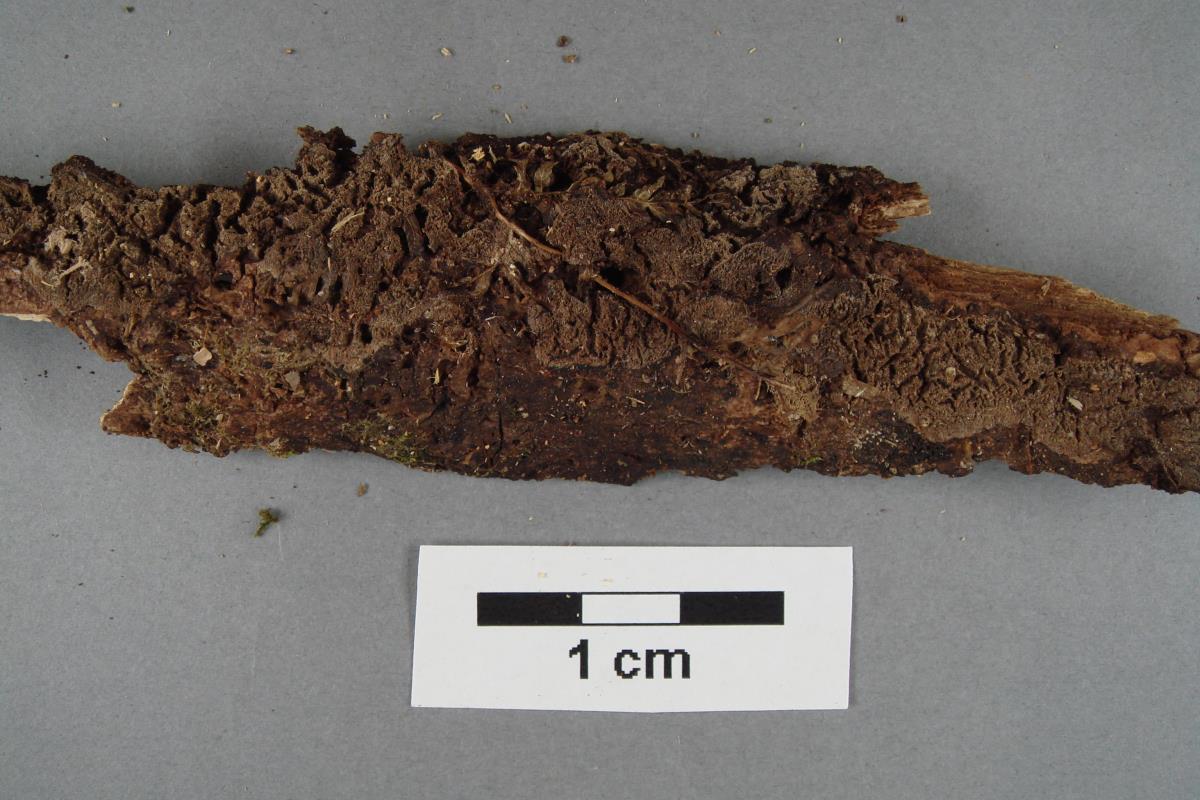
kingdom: Fungi
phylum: Basidiomycota
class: Agaricomycetes
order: Polyporales
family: Meruliaceae
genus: Phlebia
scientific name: Phlebia subfascicularis
